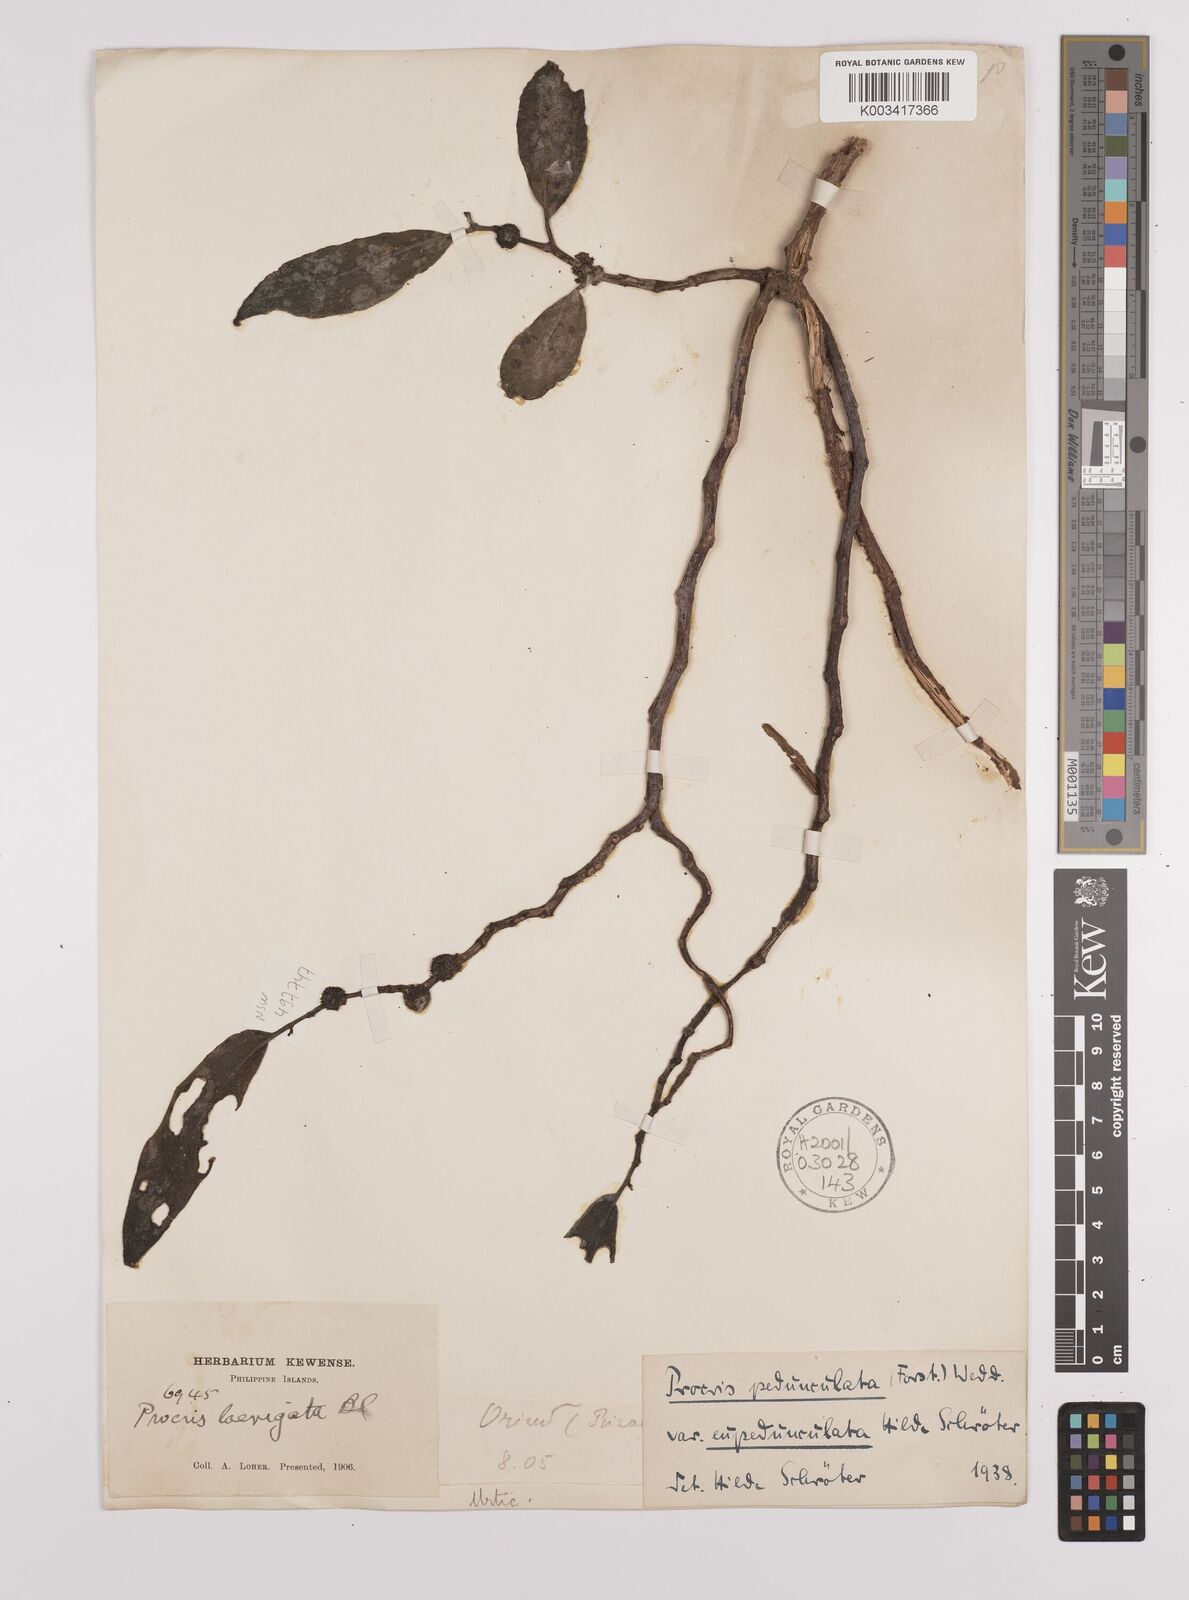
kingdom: Plantae
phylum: Tracheophyta
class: Magnoliopsida
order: Rosales
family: Urticaceae
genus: Procris
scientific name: Procris pedunculata
